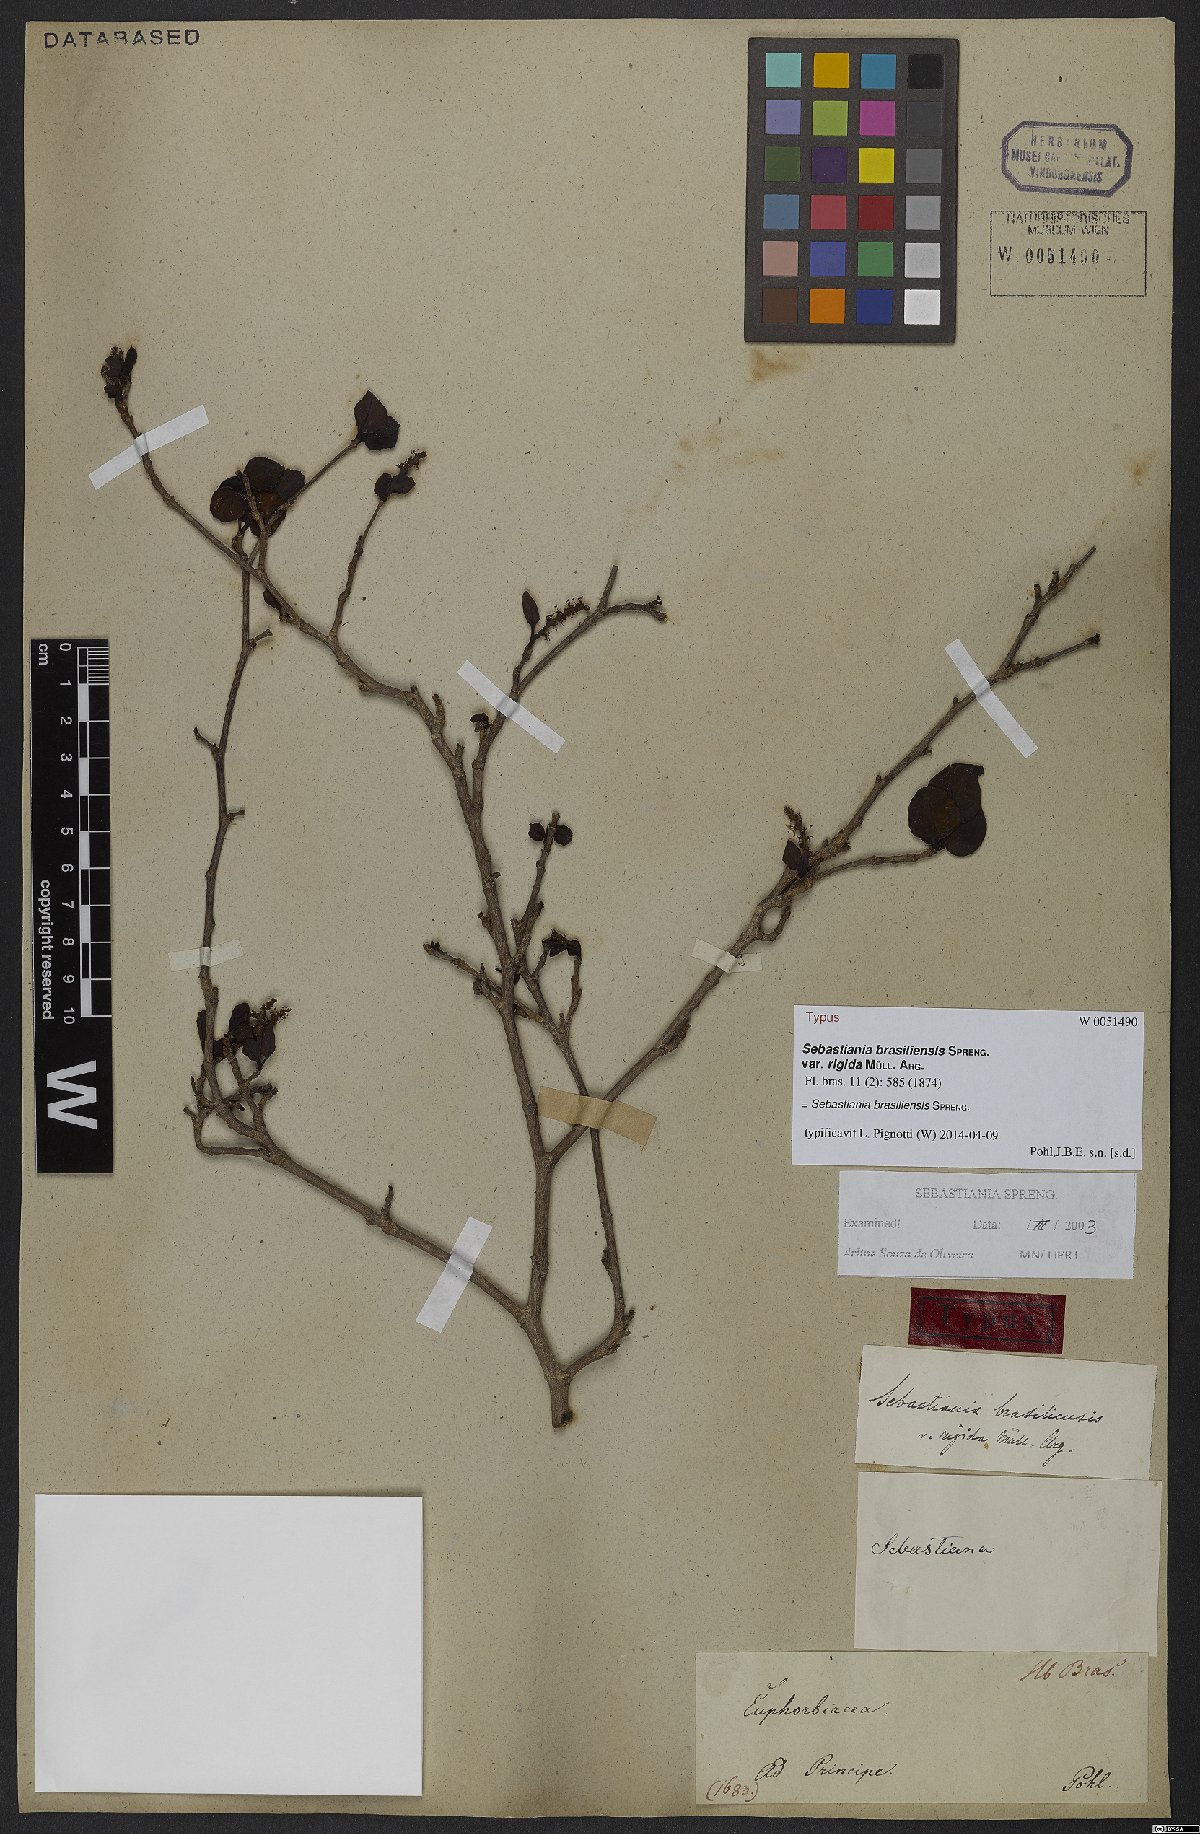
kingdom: Plantae
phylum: Tracheophyta
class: Magnoliopsida
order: Malpighiales
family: Euphorbiaceae
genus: Sebastiania
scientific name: Sebastiania brasiliensis
